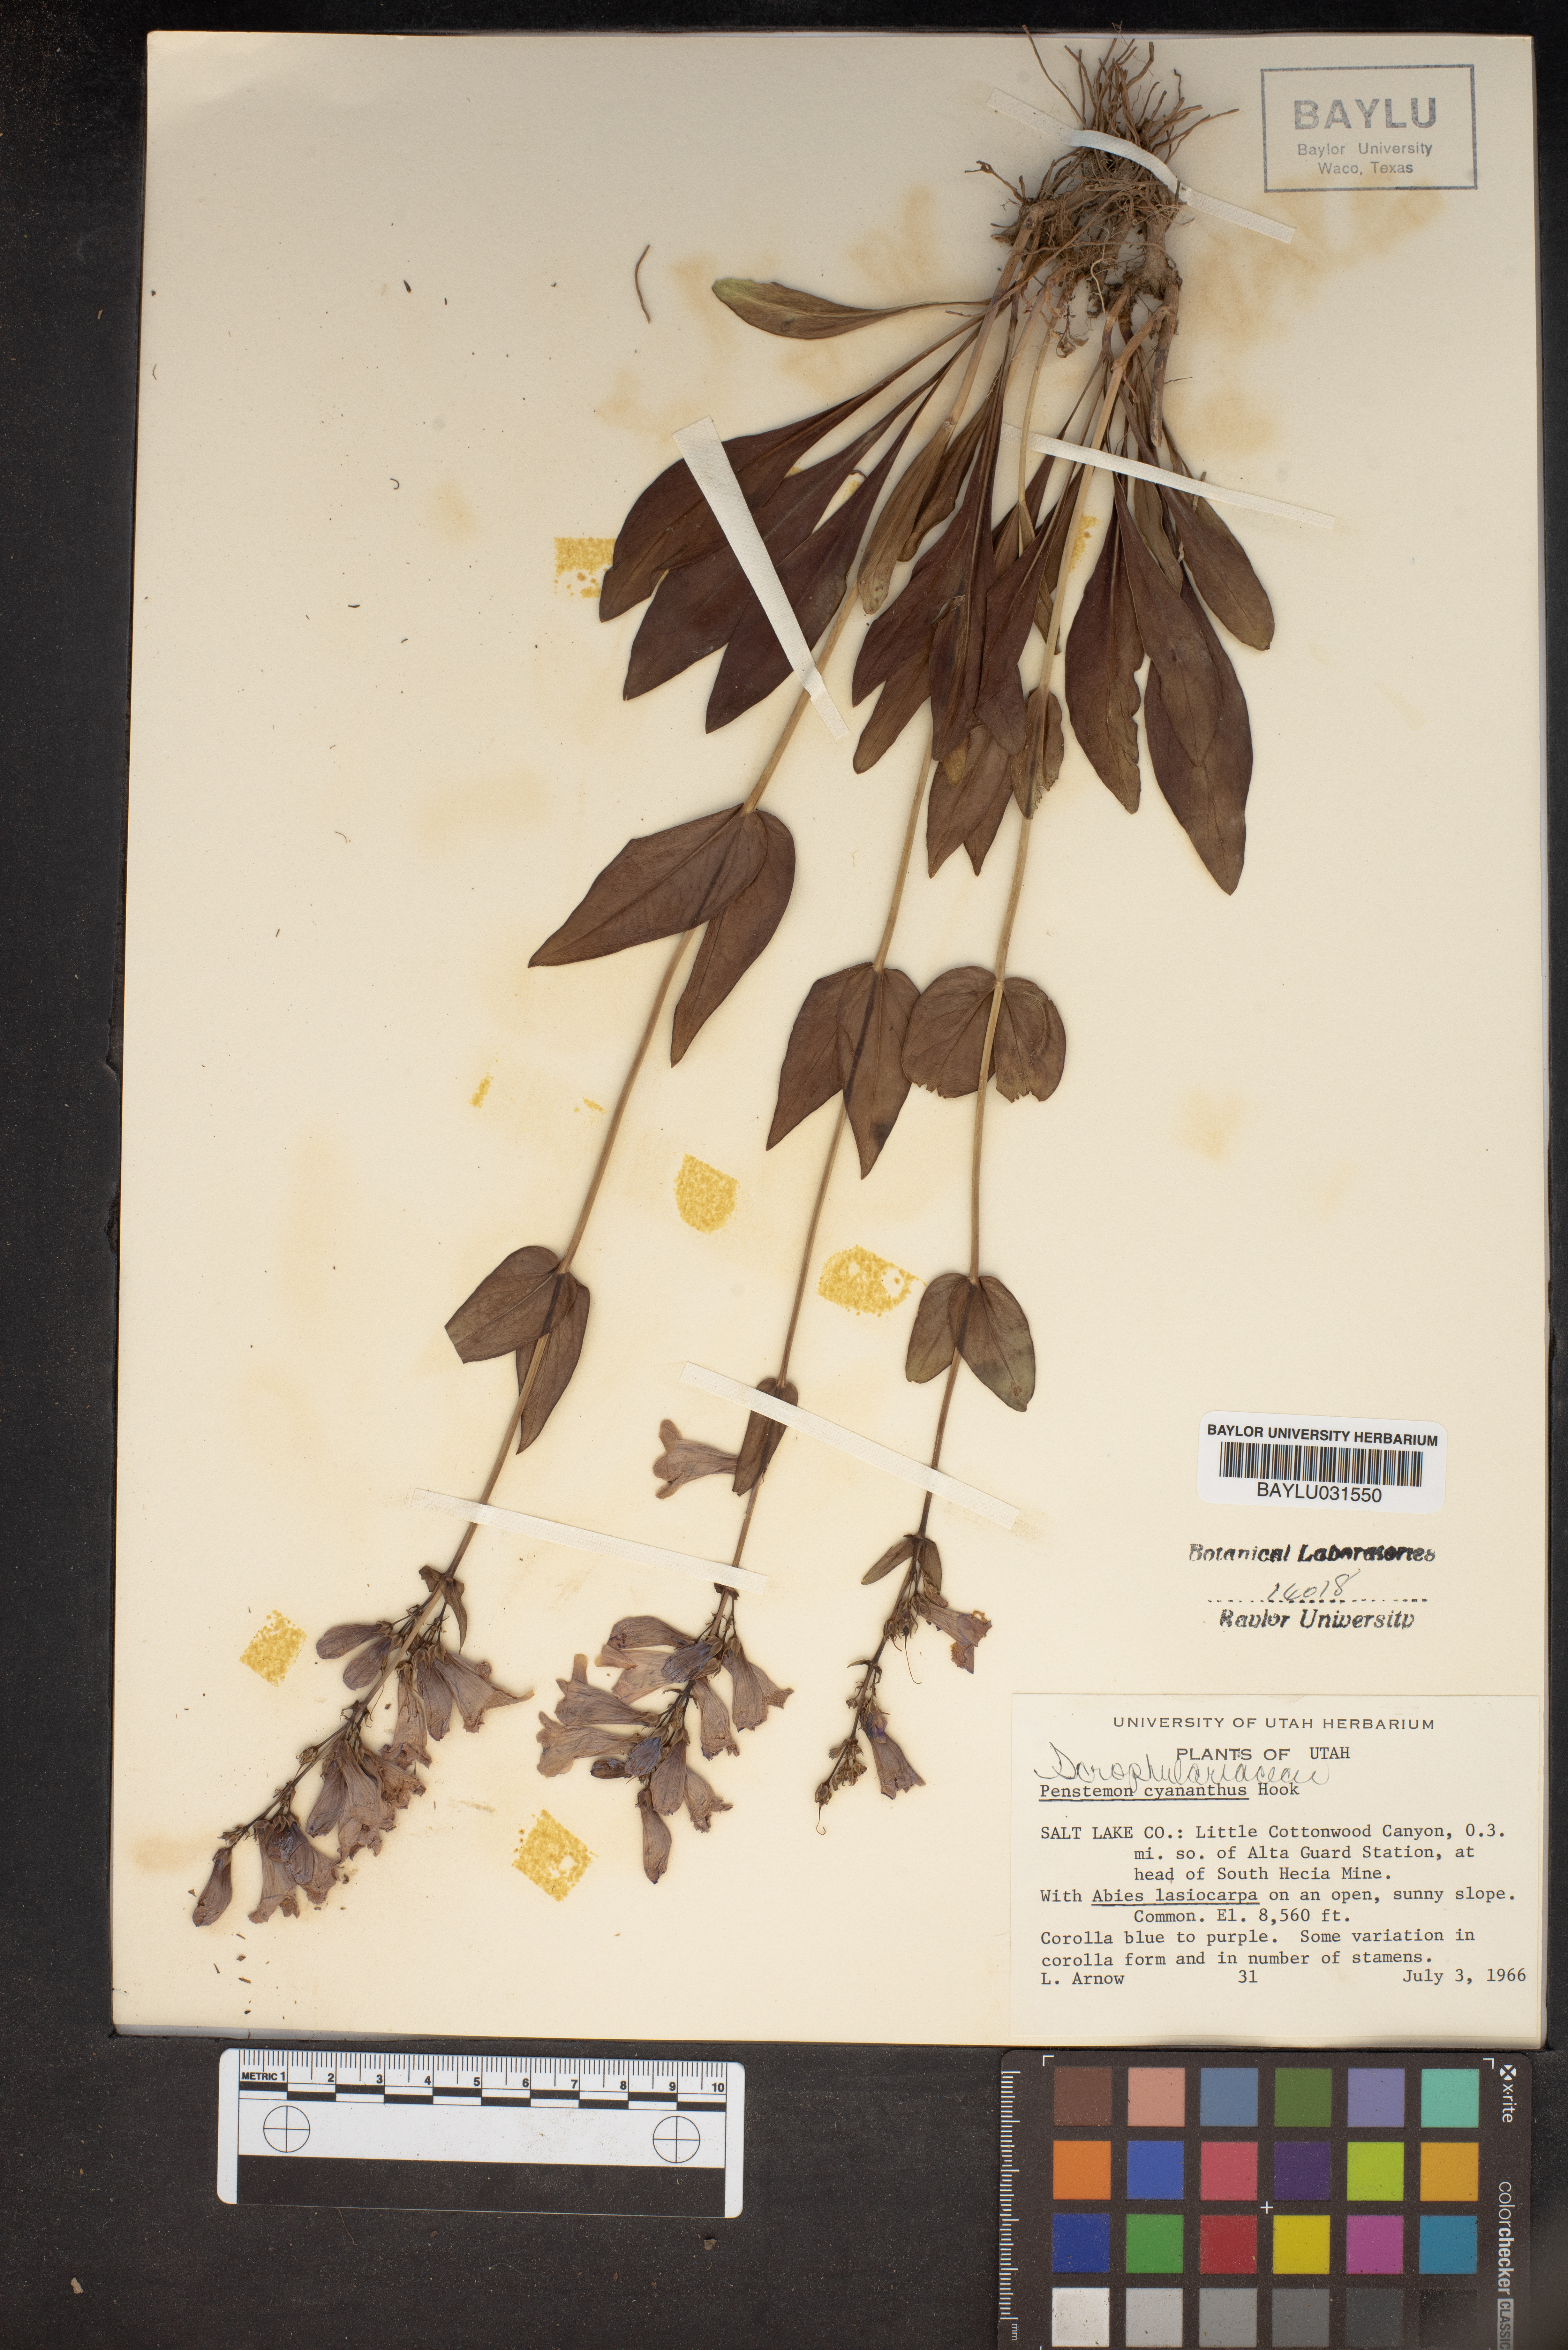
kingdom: Plantae
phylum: Tracheophyta
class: Magnoliopsida
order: Lamiales
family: Plantaginaceae
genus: Penstemon
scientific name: Penstemon cyananthus
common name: Wasatch penstemon
